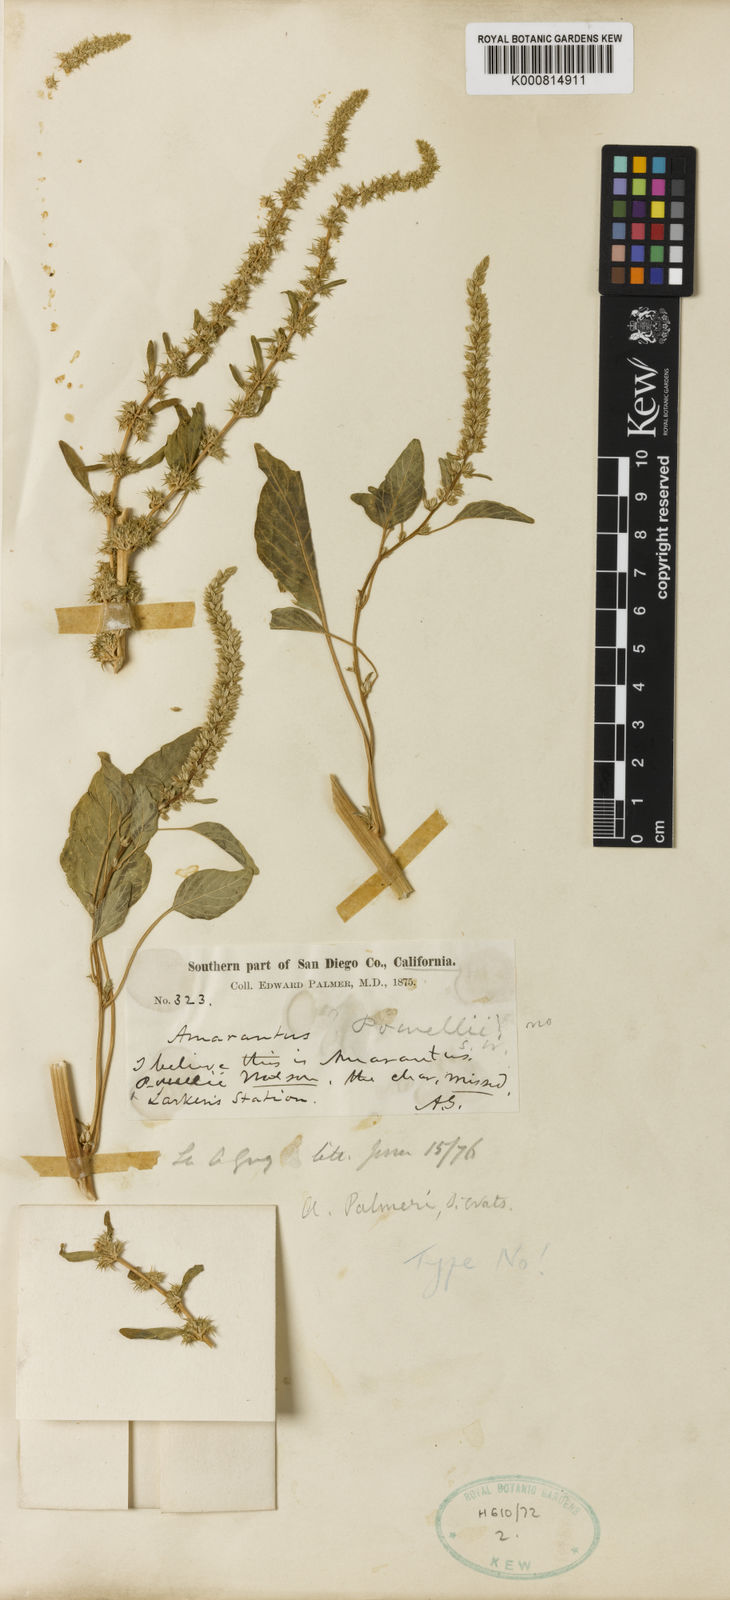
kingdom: Plantae
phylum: Tracheophyta
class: Magnoliopsida
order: Caryophyllales
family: Amaranthaceae
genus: Amaranthus
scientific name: Amaranthus palmeri
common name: Dioecious amaranth
